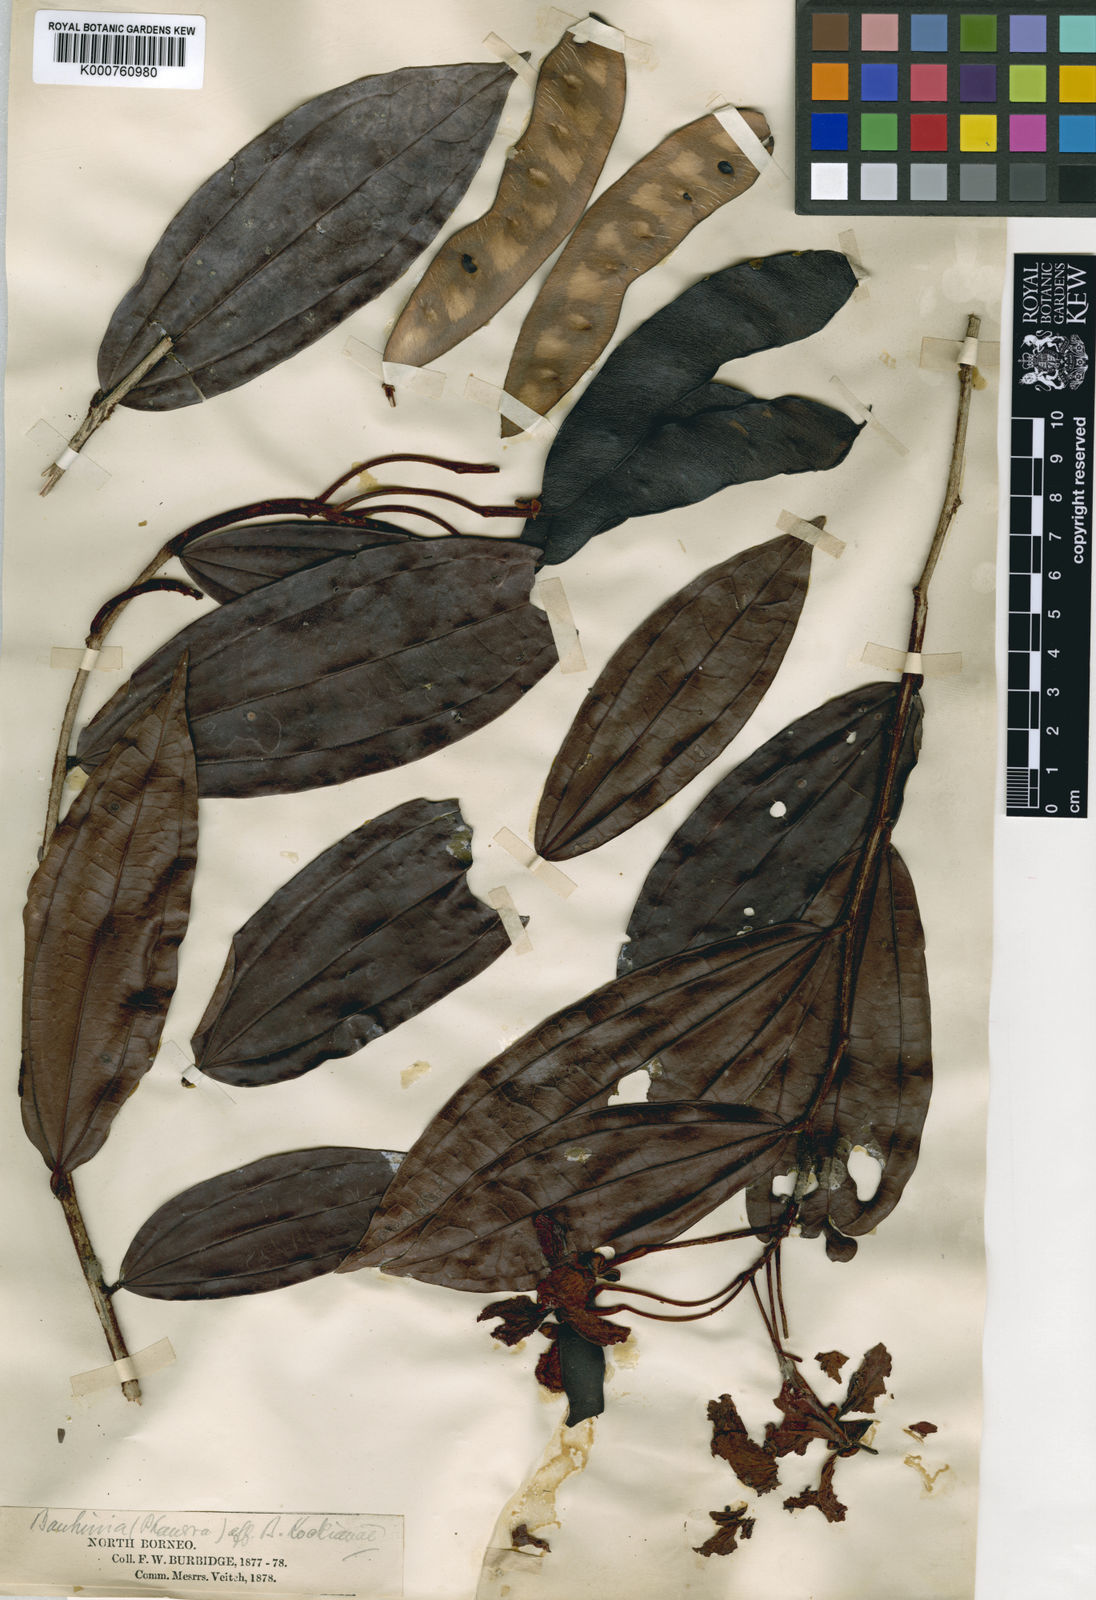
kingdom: Plantae
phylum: Tracheophyta
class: Magnoliopsida
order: Fabales
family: Fabaceae
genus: Phanera
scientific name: Phanera kockiana
